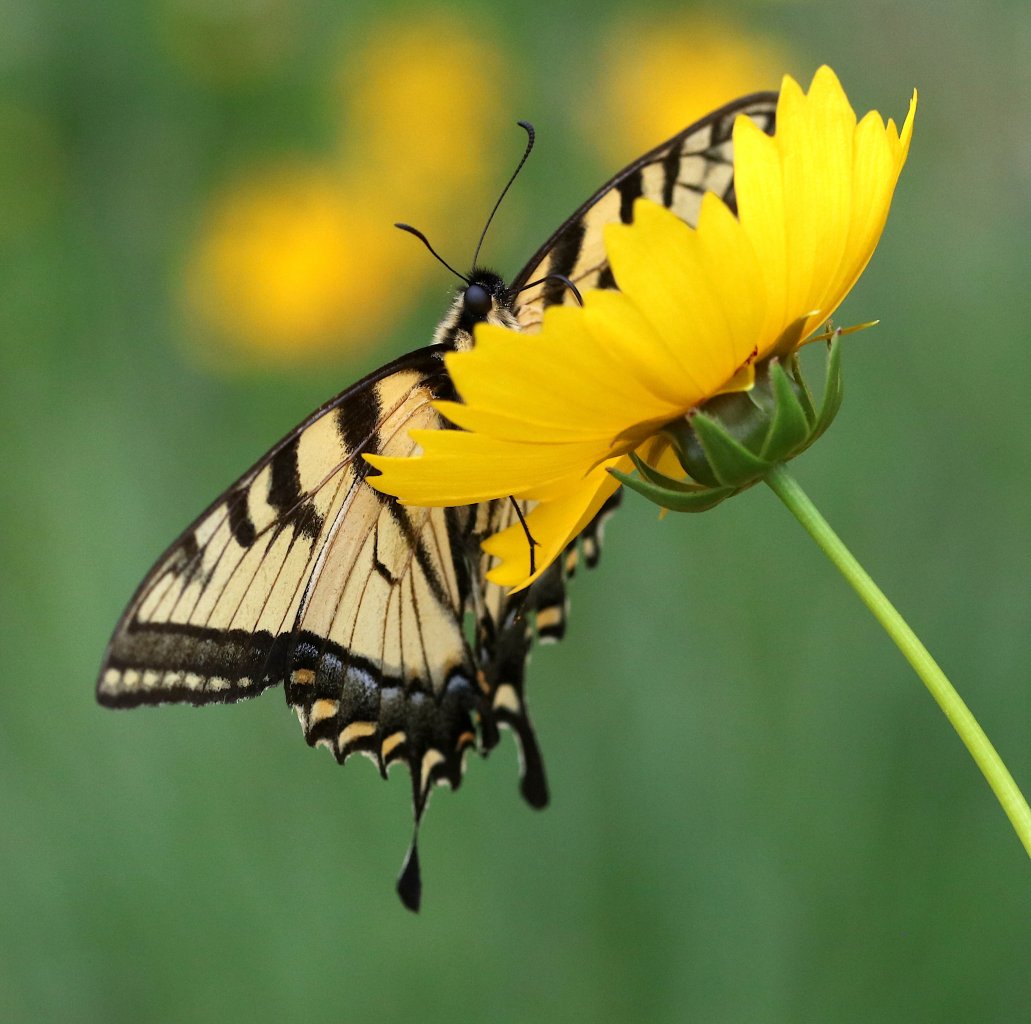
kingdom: Animalia
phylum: Arthropoda
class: Insecta
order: Lepidoptera
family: Papilionidae
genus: Pterourus
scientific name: Pterourus canadensis
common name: Canadian Tiger Swallowtail
